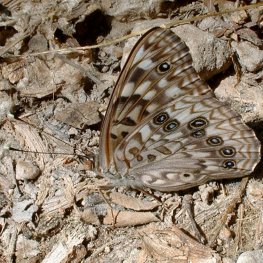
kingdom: Animalia
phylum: Arthropoda
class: Insecta
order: Lepidoptera
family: Nymphalidae
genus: Asterocampa
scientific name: Asterocampa celtis
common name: Hackberry Emperor
